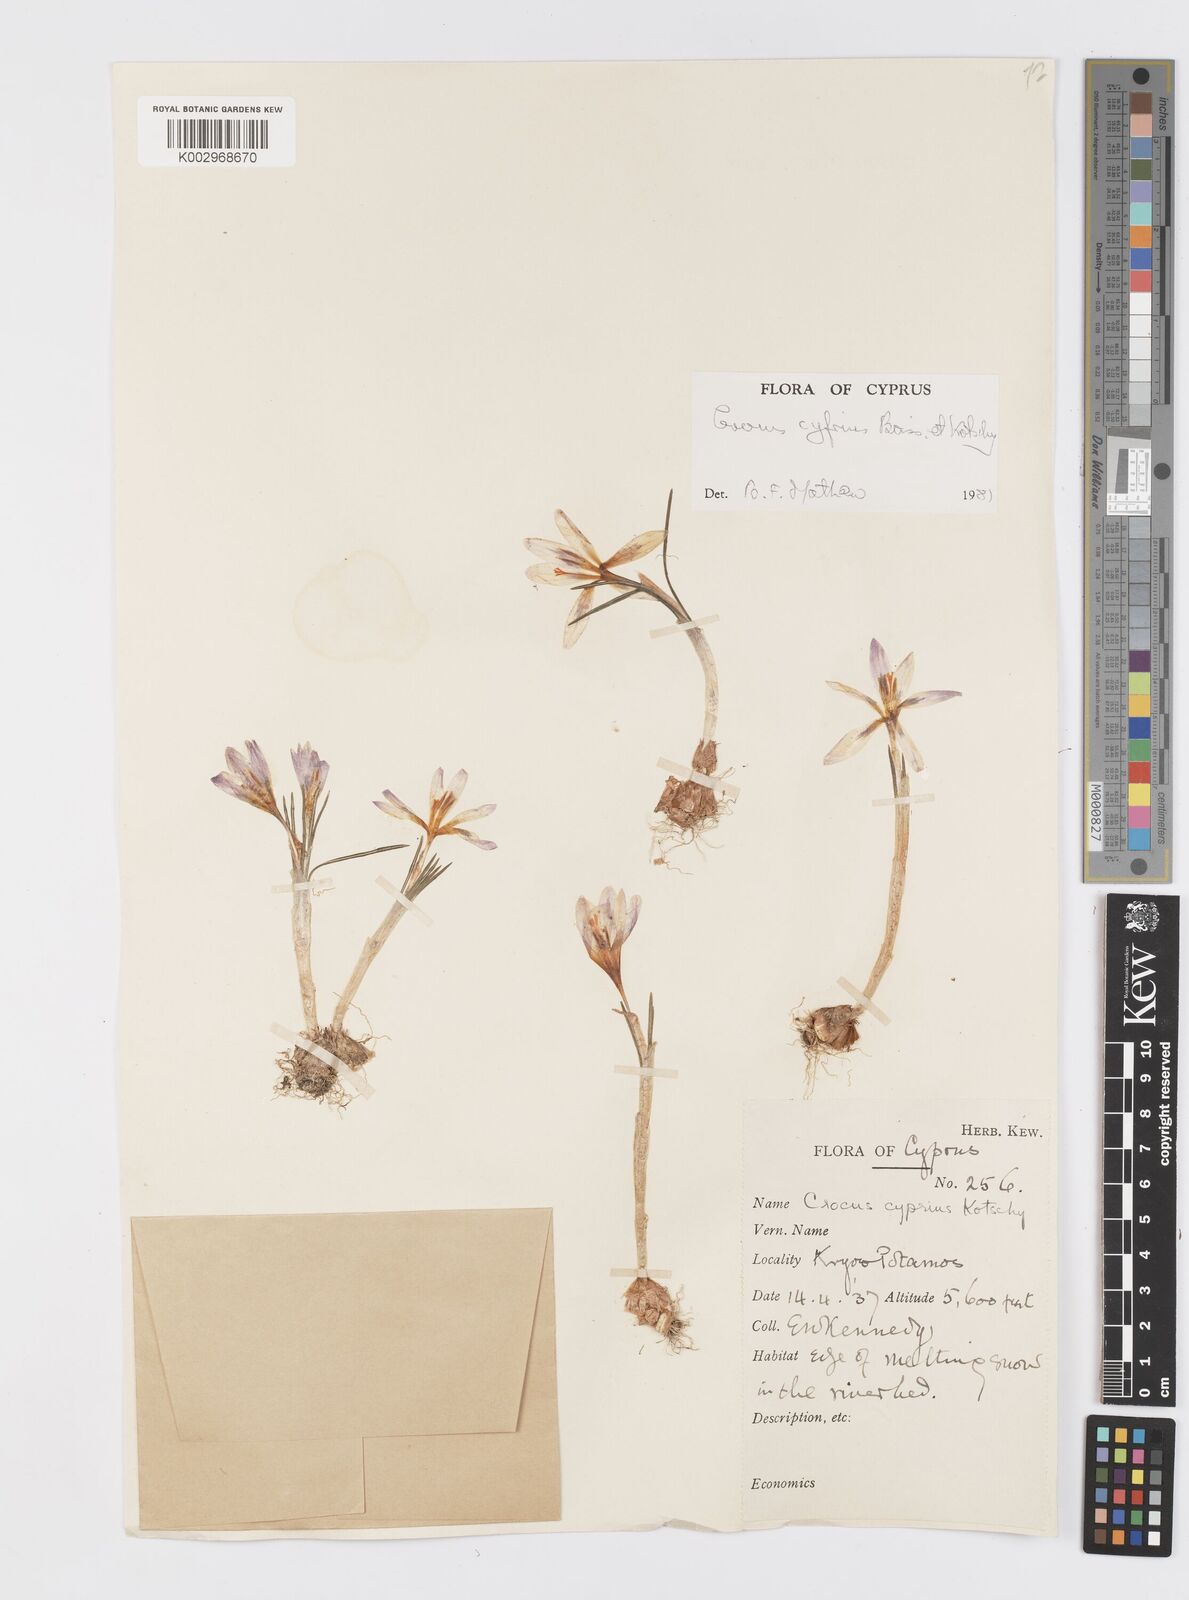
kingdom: Plantae
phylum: Tracheophyta
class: Liliopsida
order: Asparagales
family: Iridaceae
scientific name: Iridaceae
